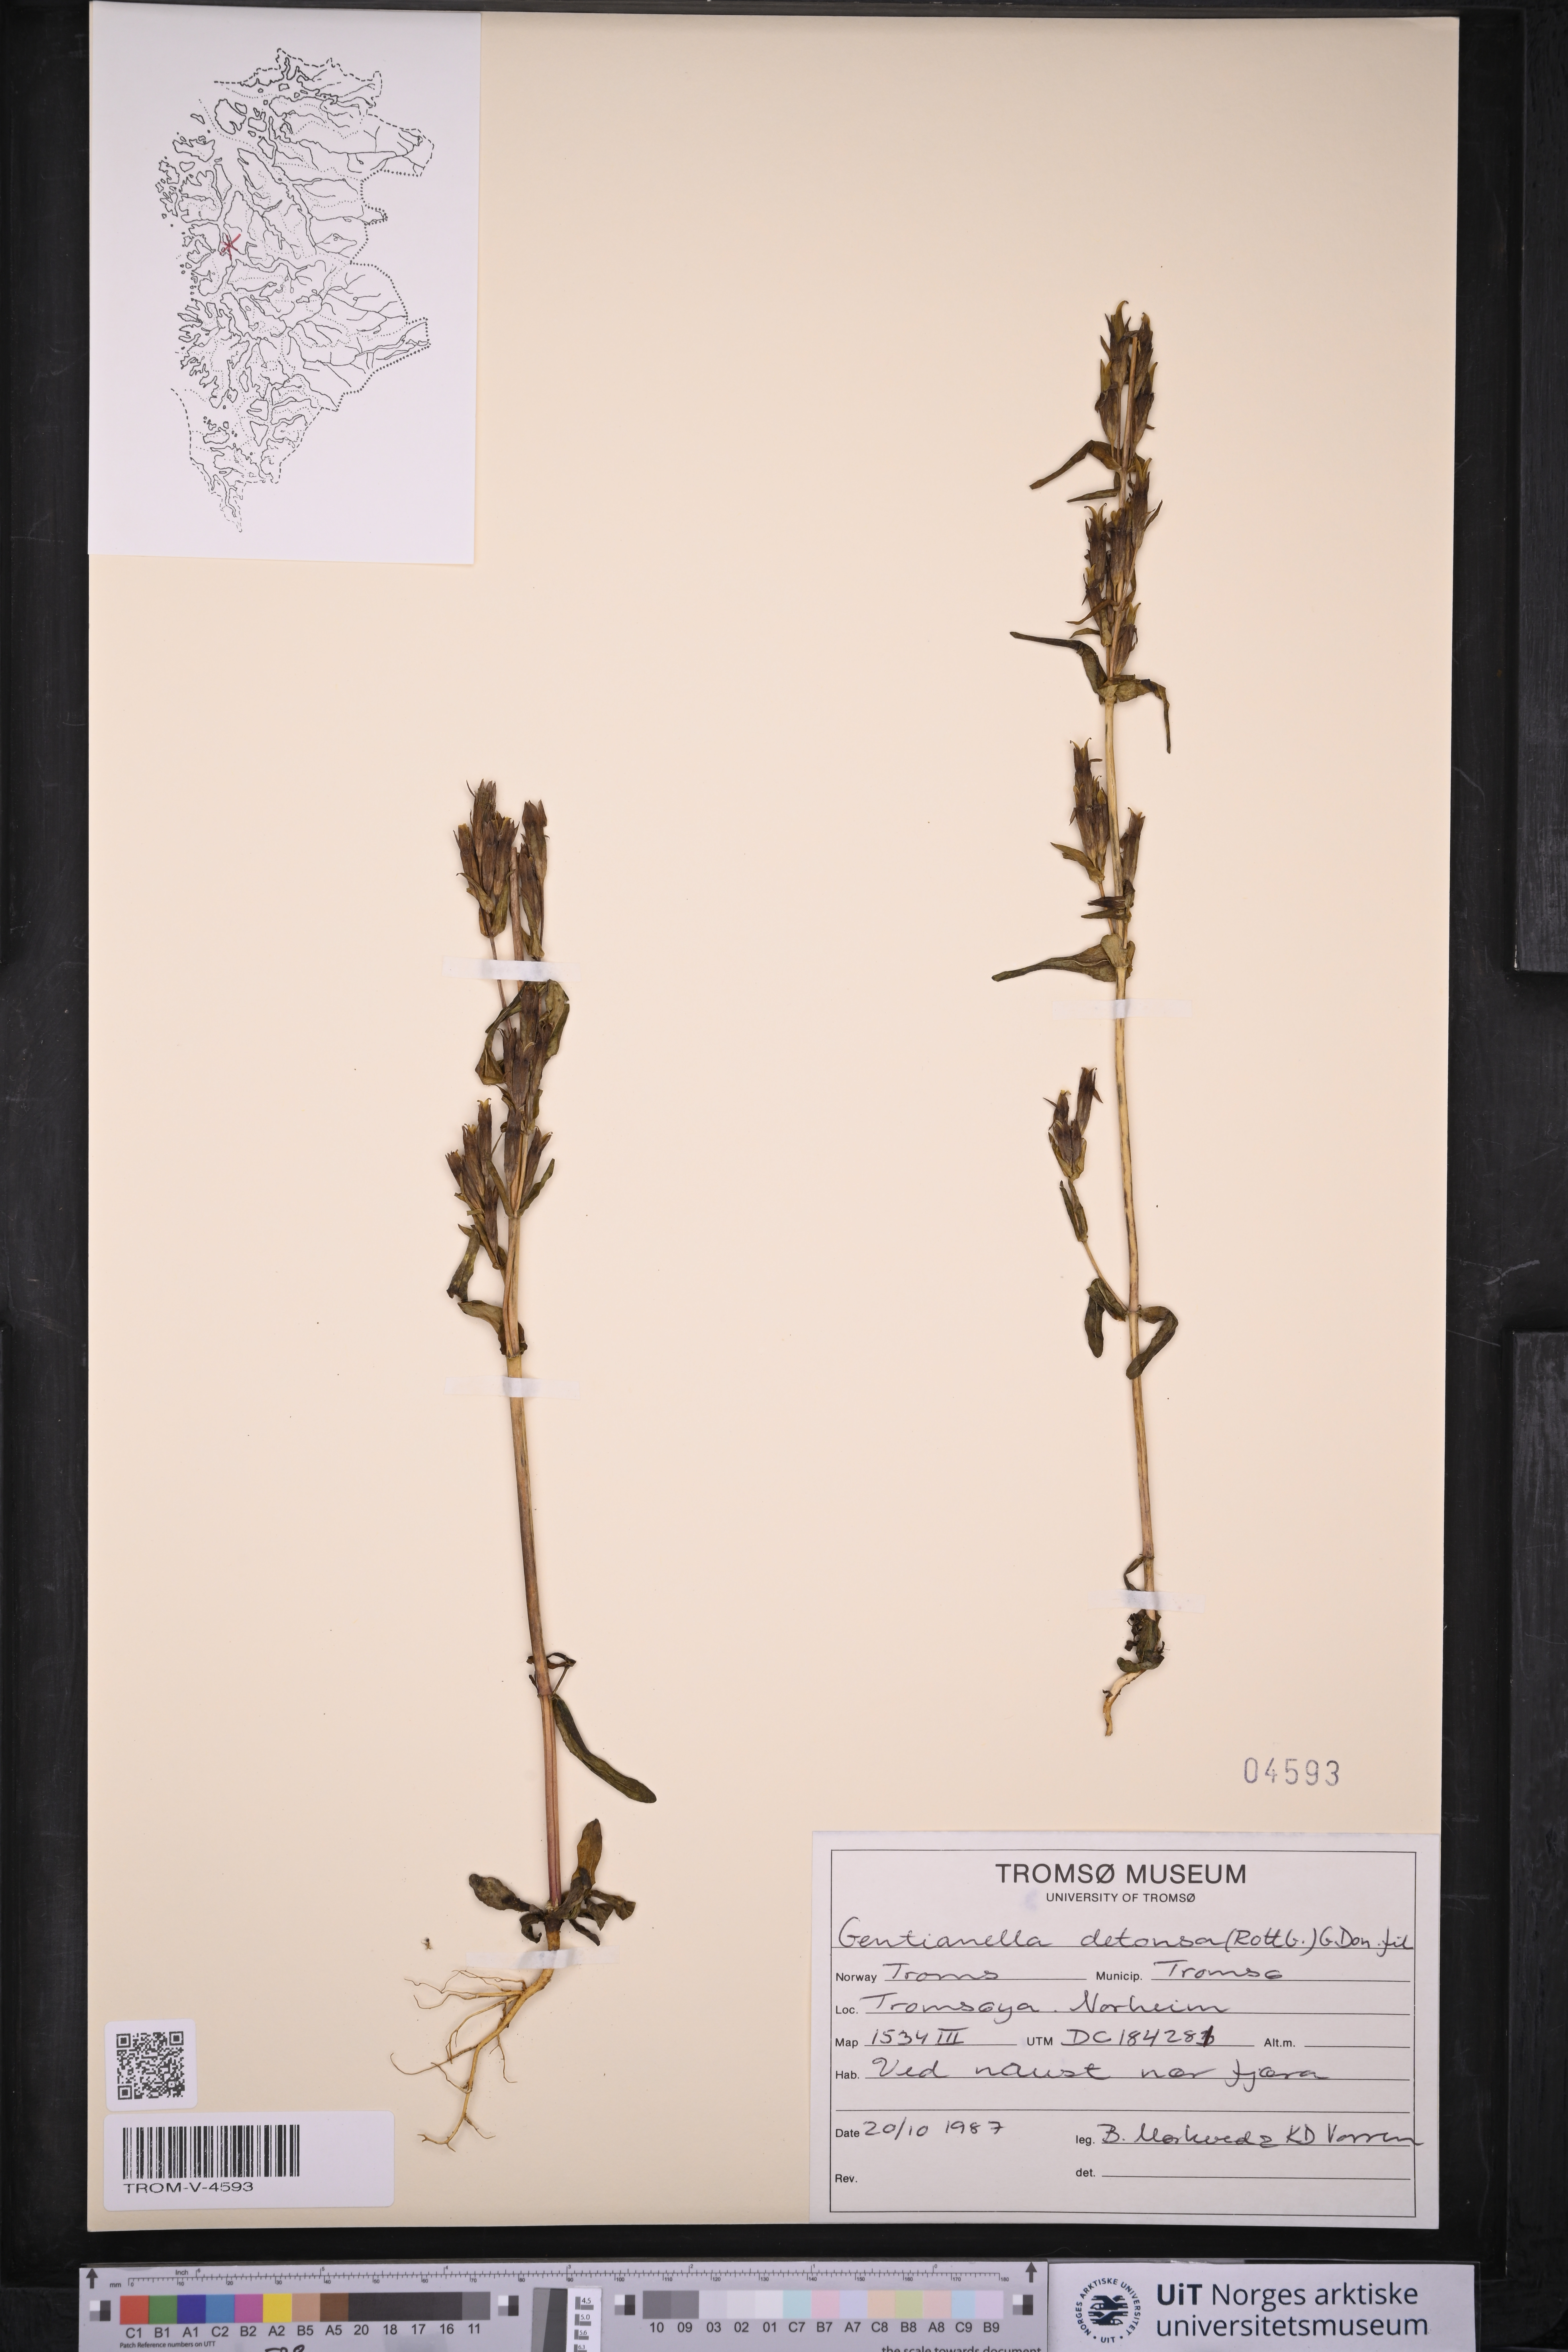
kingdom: Plantae
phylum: Tracheophyta
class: Magnoliopsida
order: Gentianales
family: Gentianaceae
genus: Gentianopsis
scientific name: Gentianopsis detonsa
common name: Fringed-gentian
